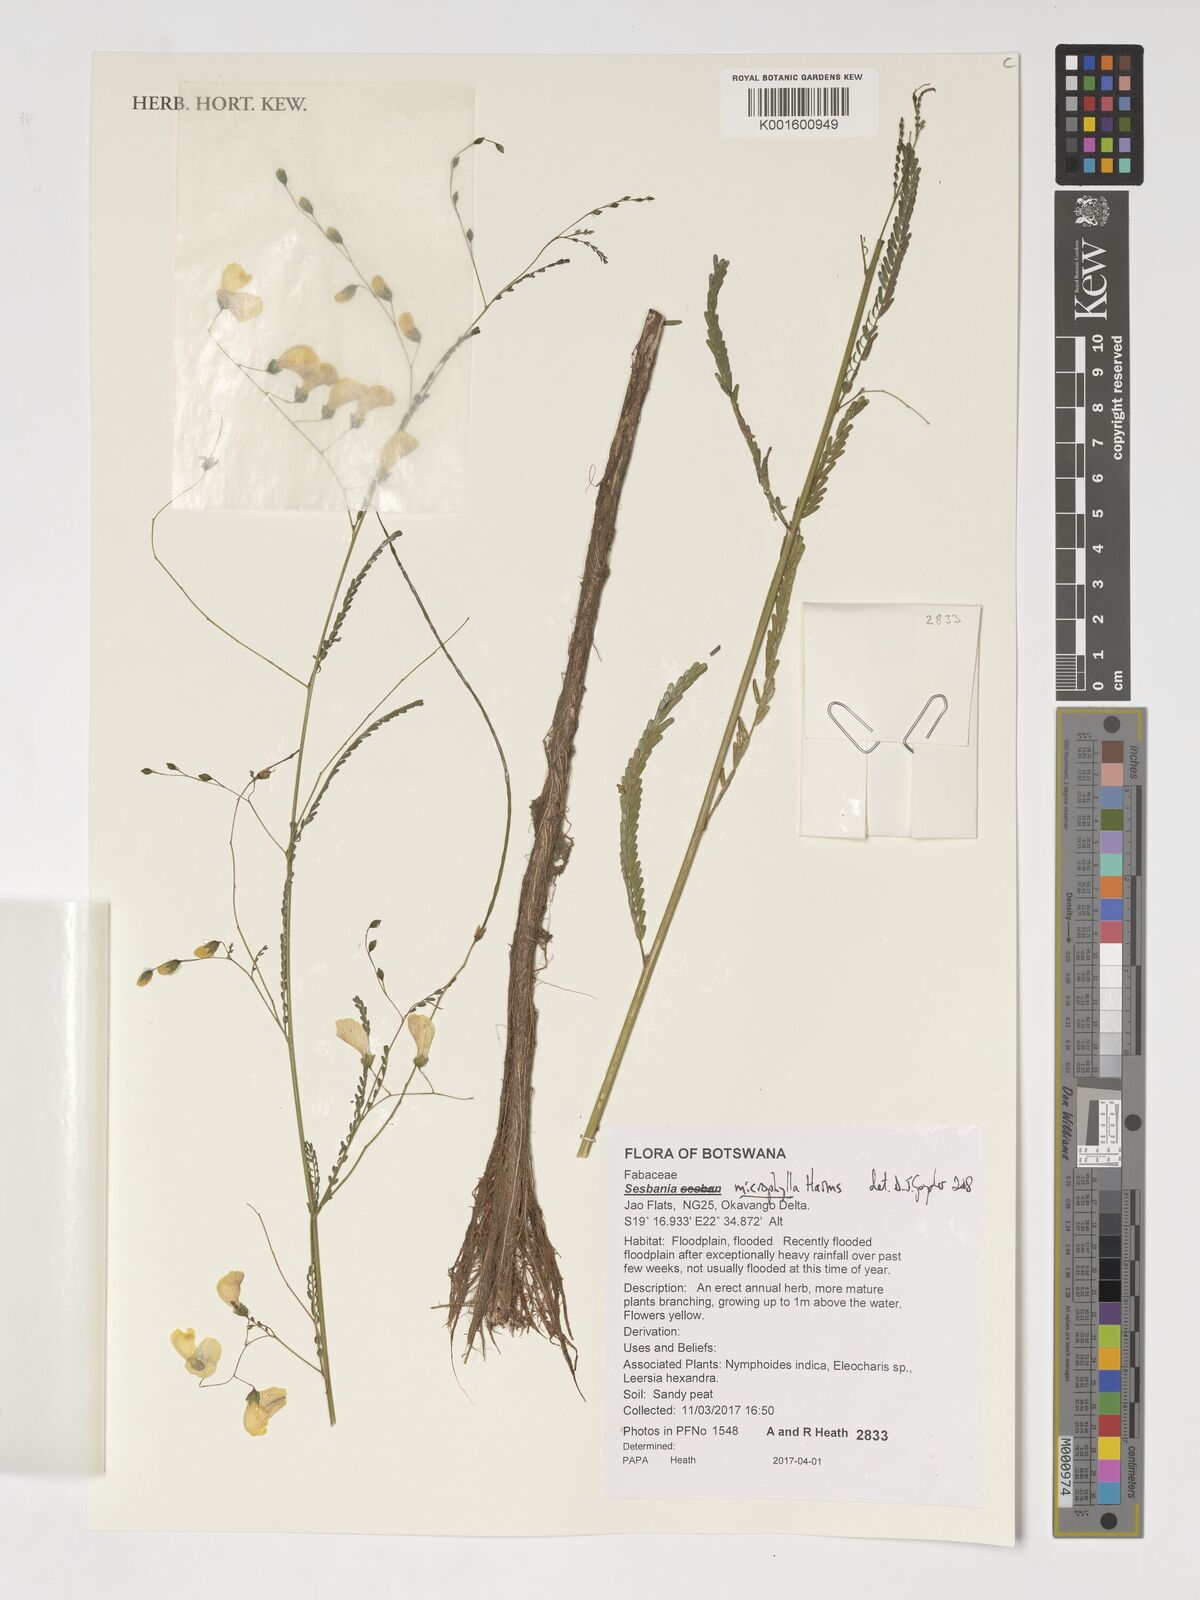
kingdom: Plantae
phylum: Tracheophyta
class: Magnoliopsida
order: Fabales
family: Fabaceae
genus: Sesbania
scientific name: Sesbania microphylla
